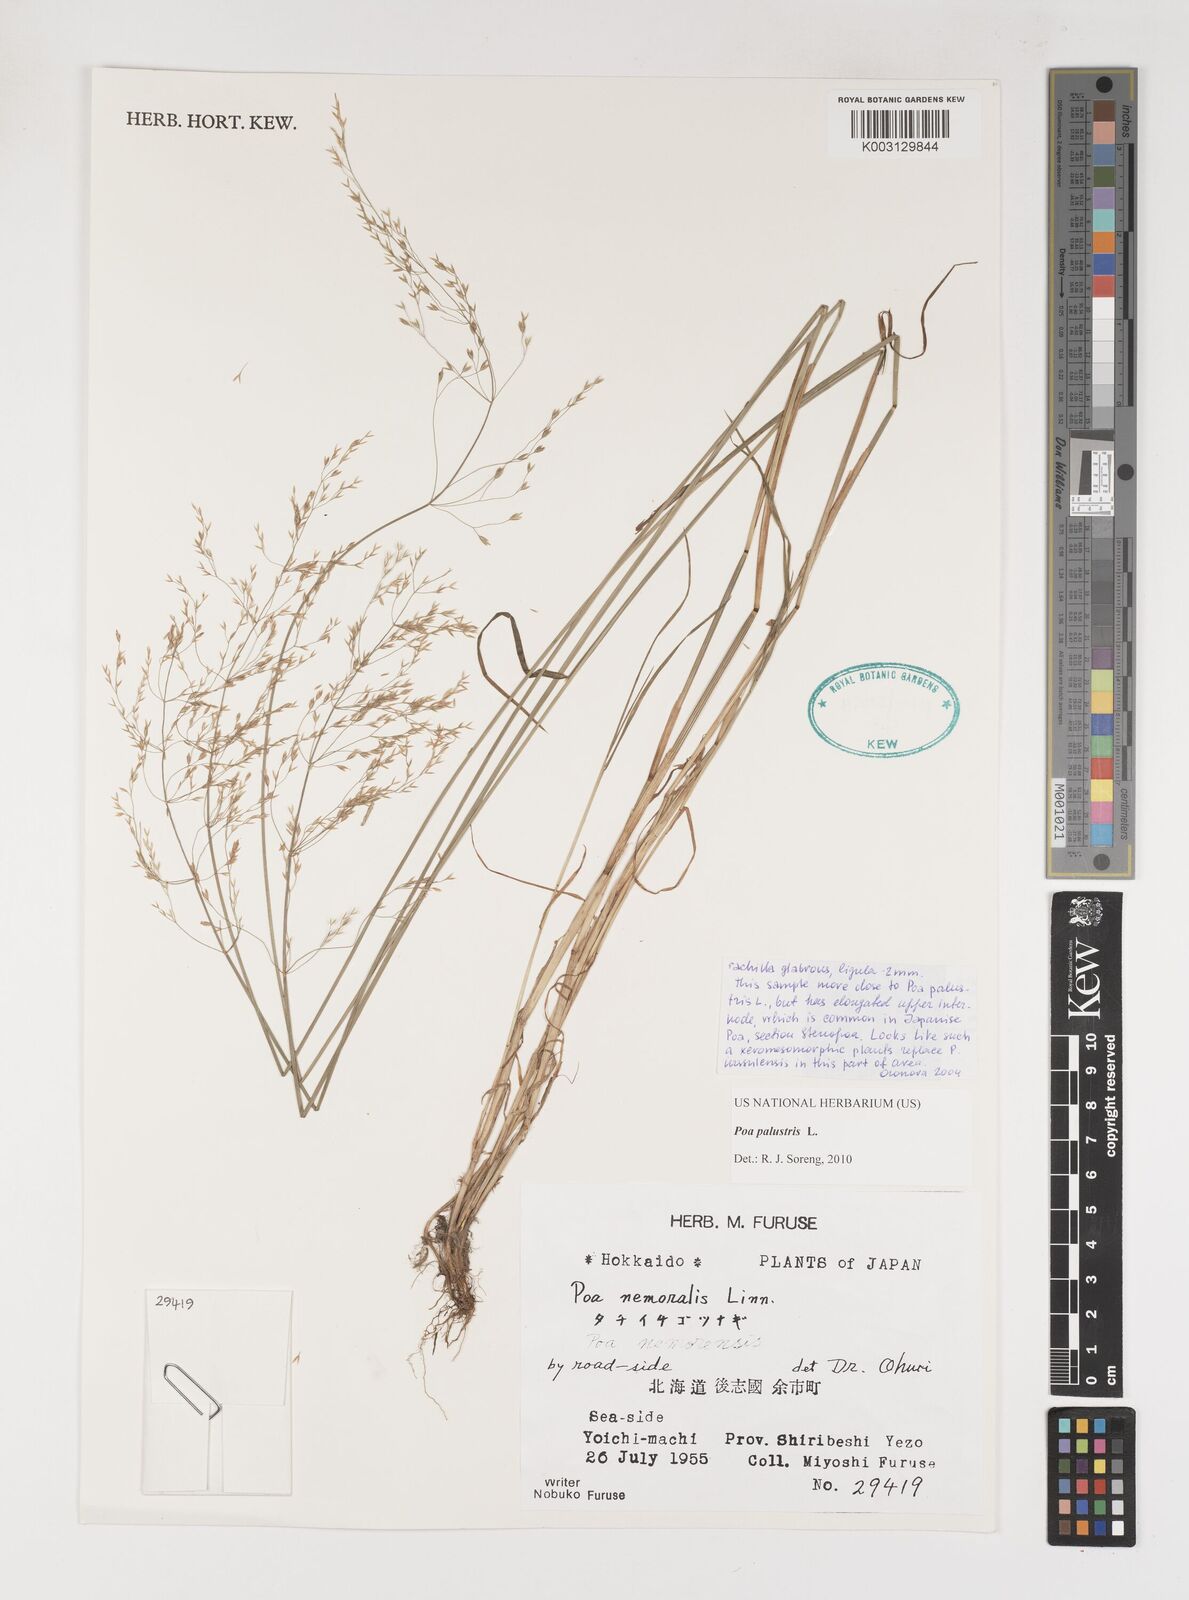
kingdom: Plantae
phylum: Tracheophyta
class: Liliopsida
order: Poales
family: Poaceae
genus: Poa
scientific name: Poa palustris
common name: Swamp meadow-grass
